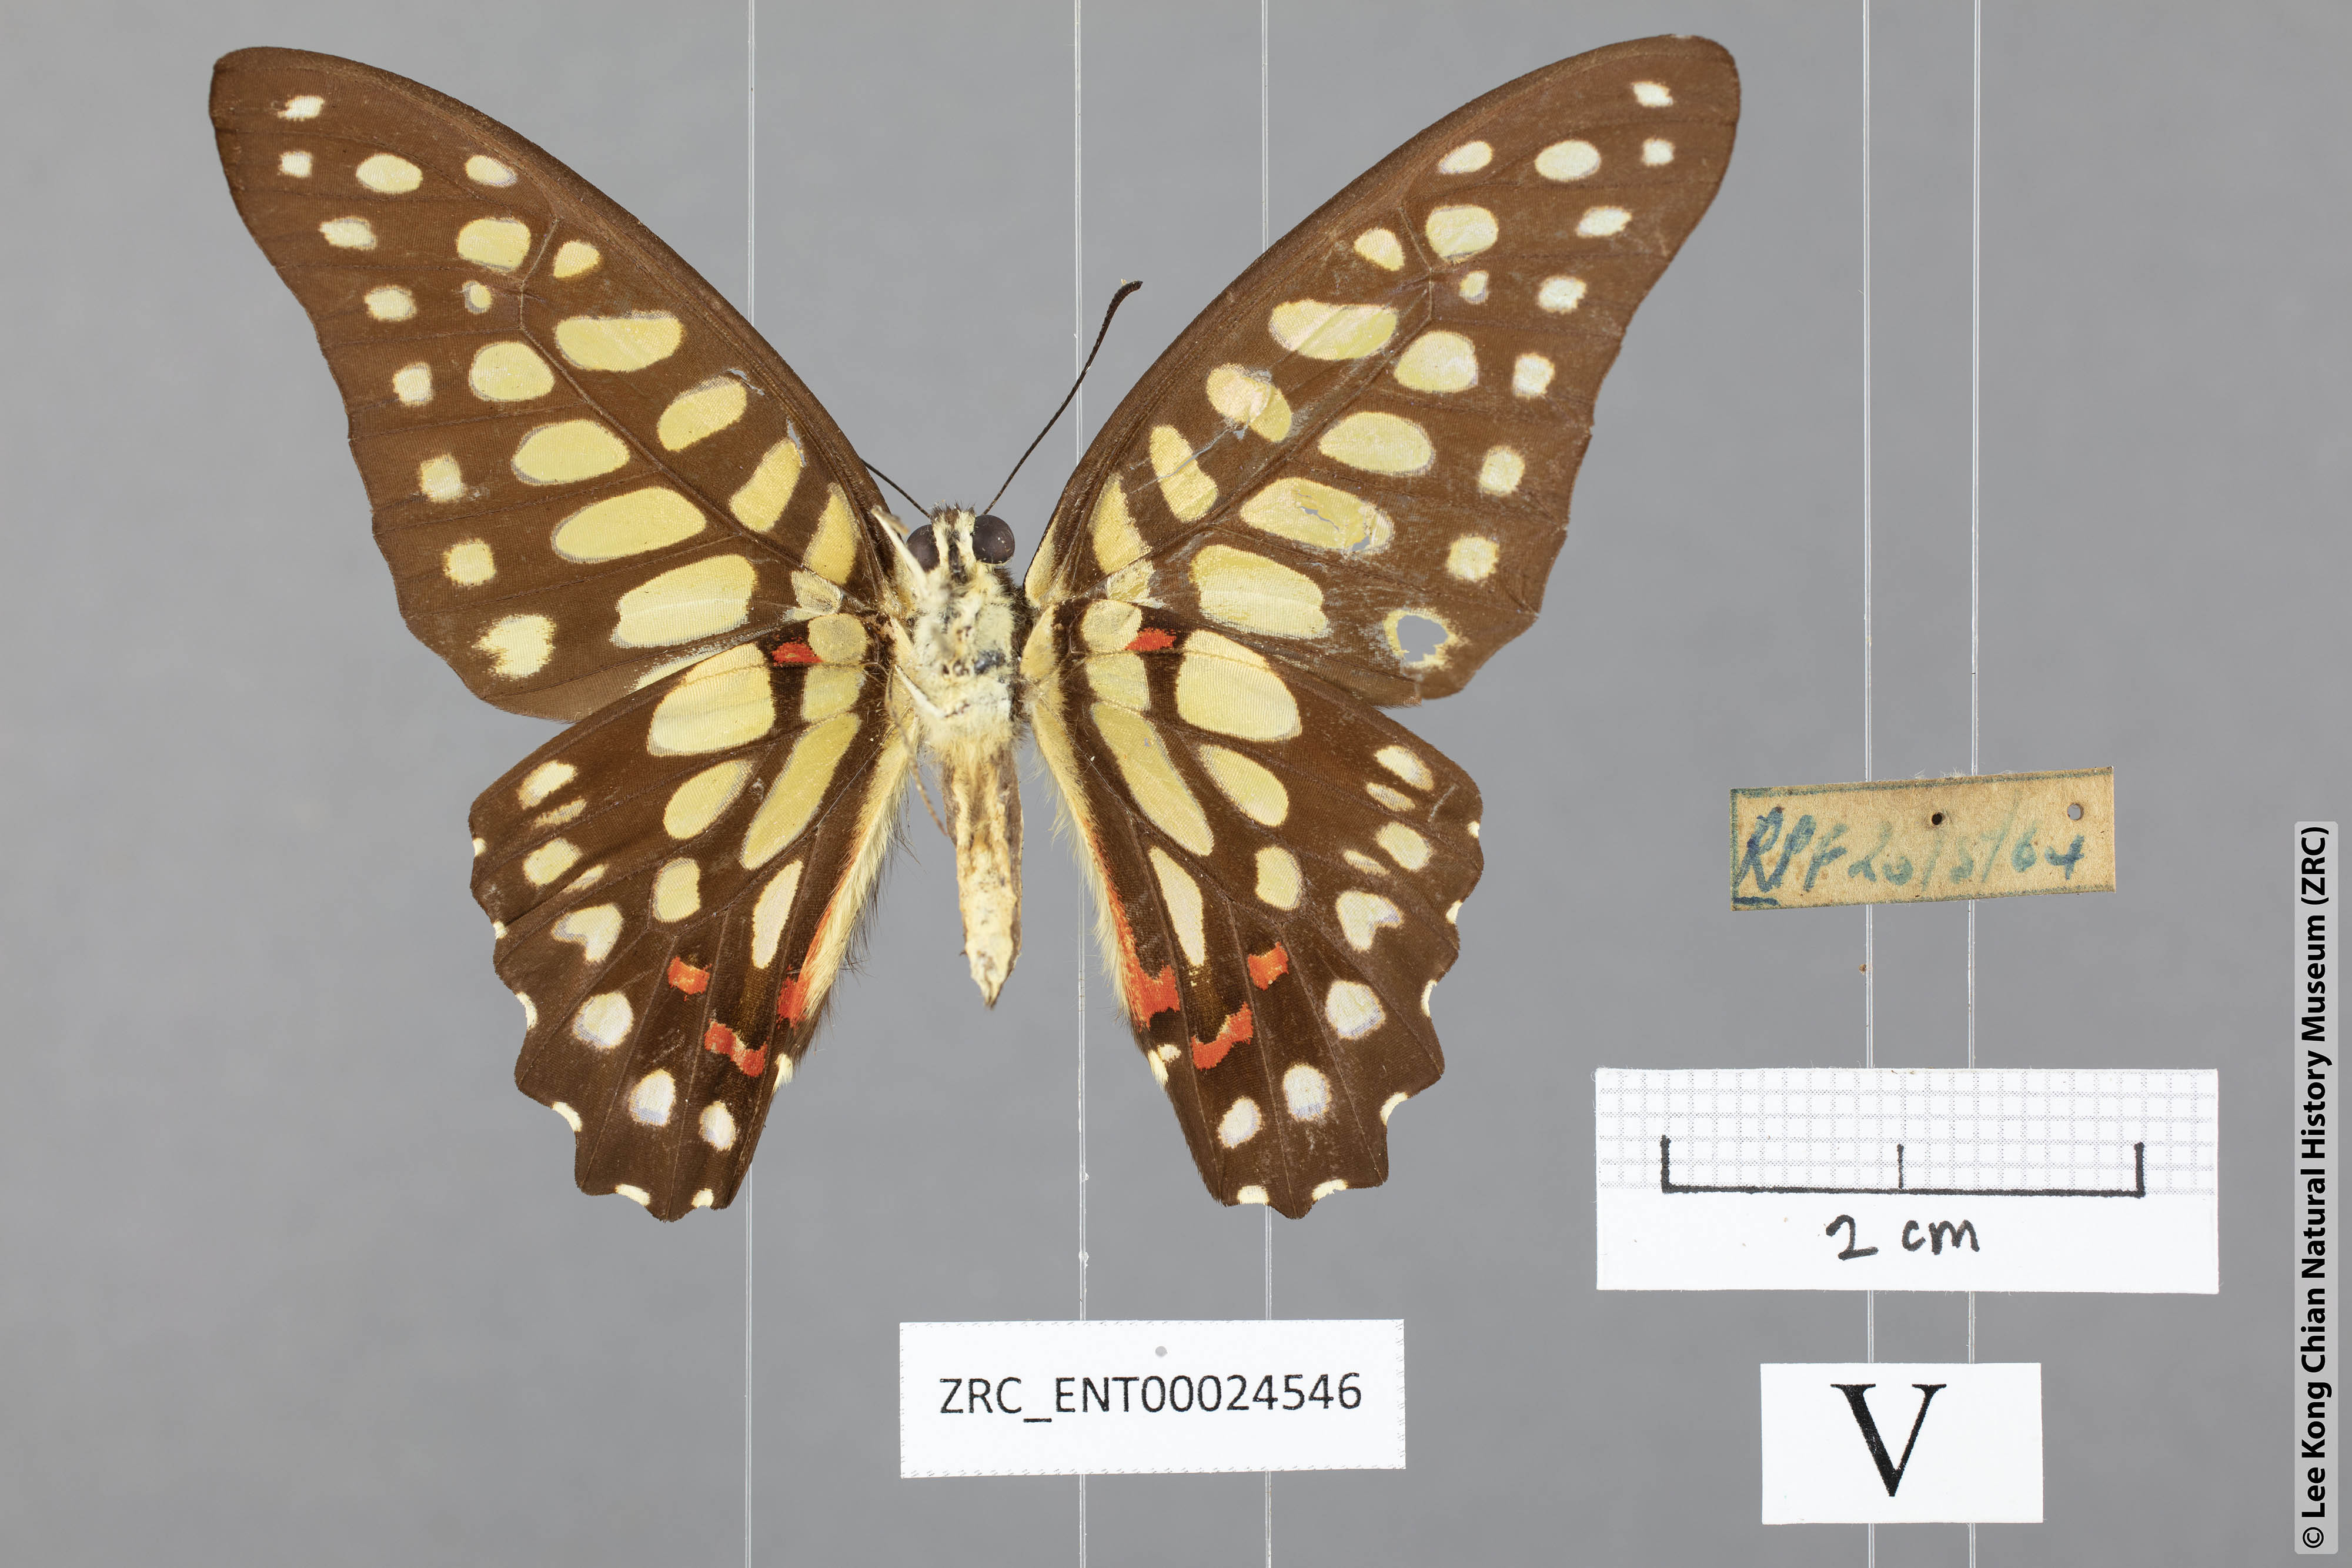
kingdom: Animalia
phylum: Arthropoda
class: Insecta
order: Lepidoptera
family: Papilionidae
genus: Graphium
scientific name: Graphium arycles
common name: Spotted jay
